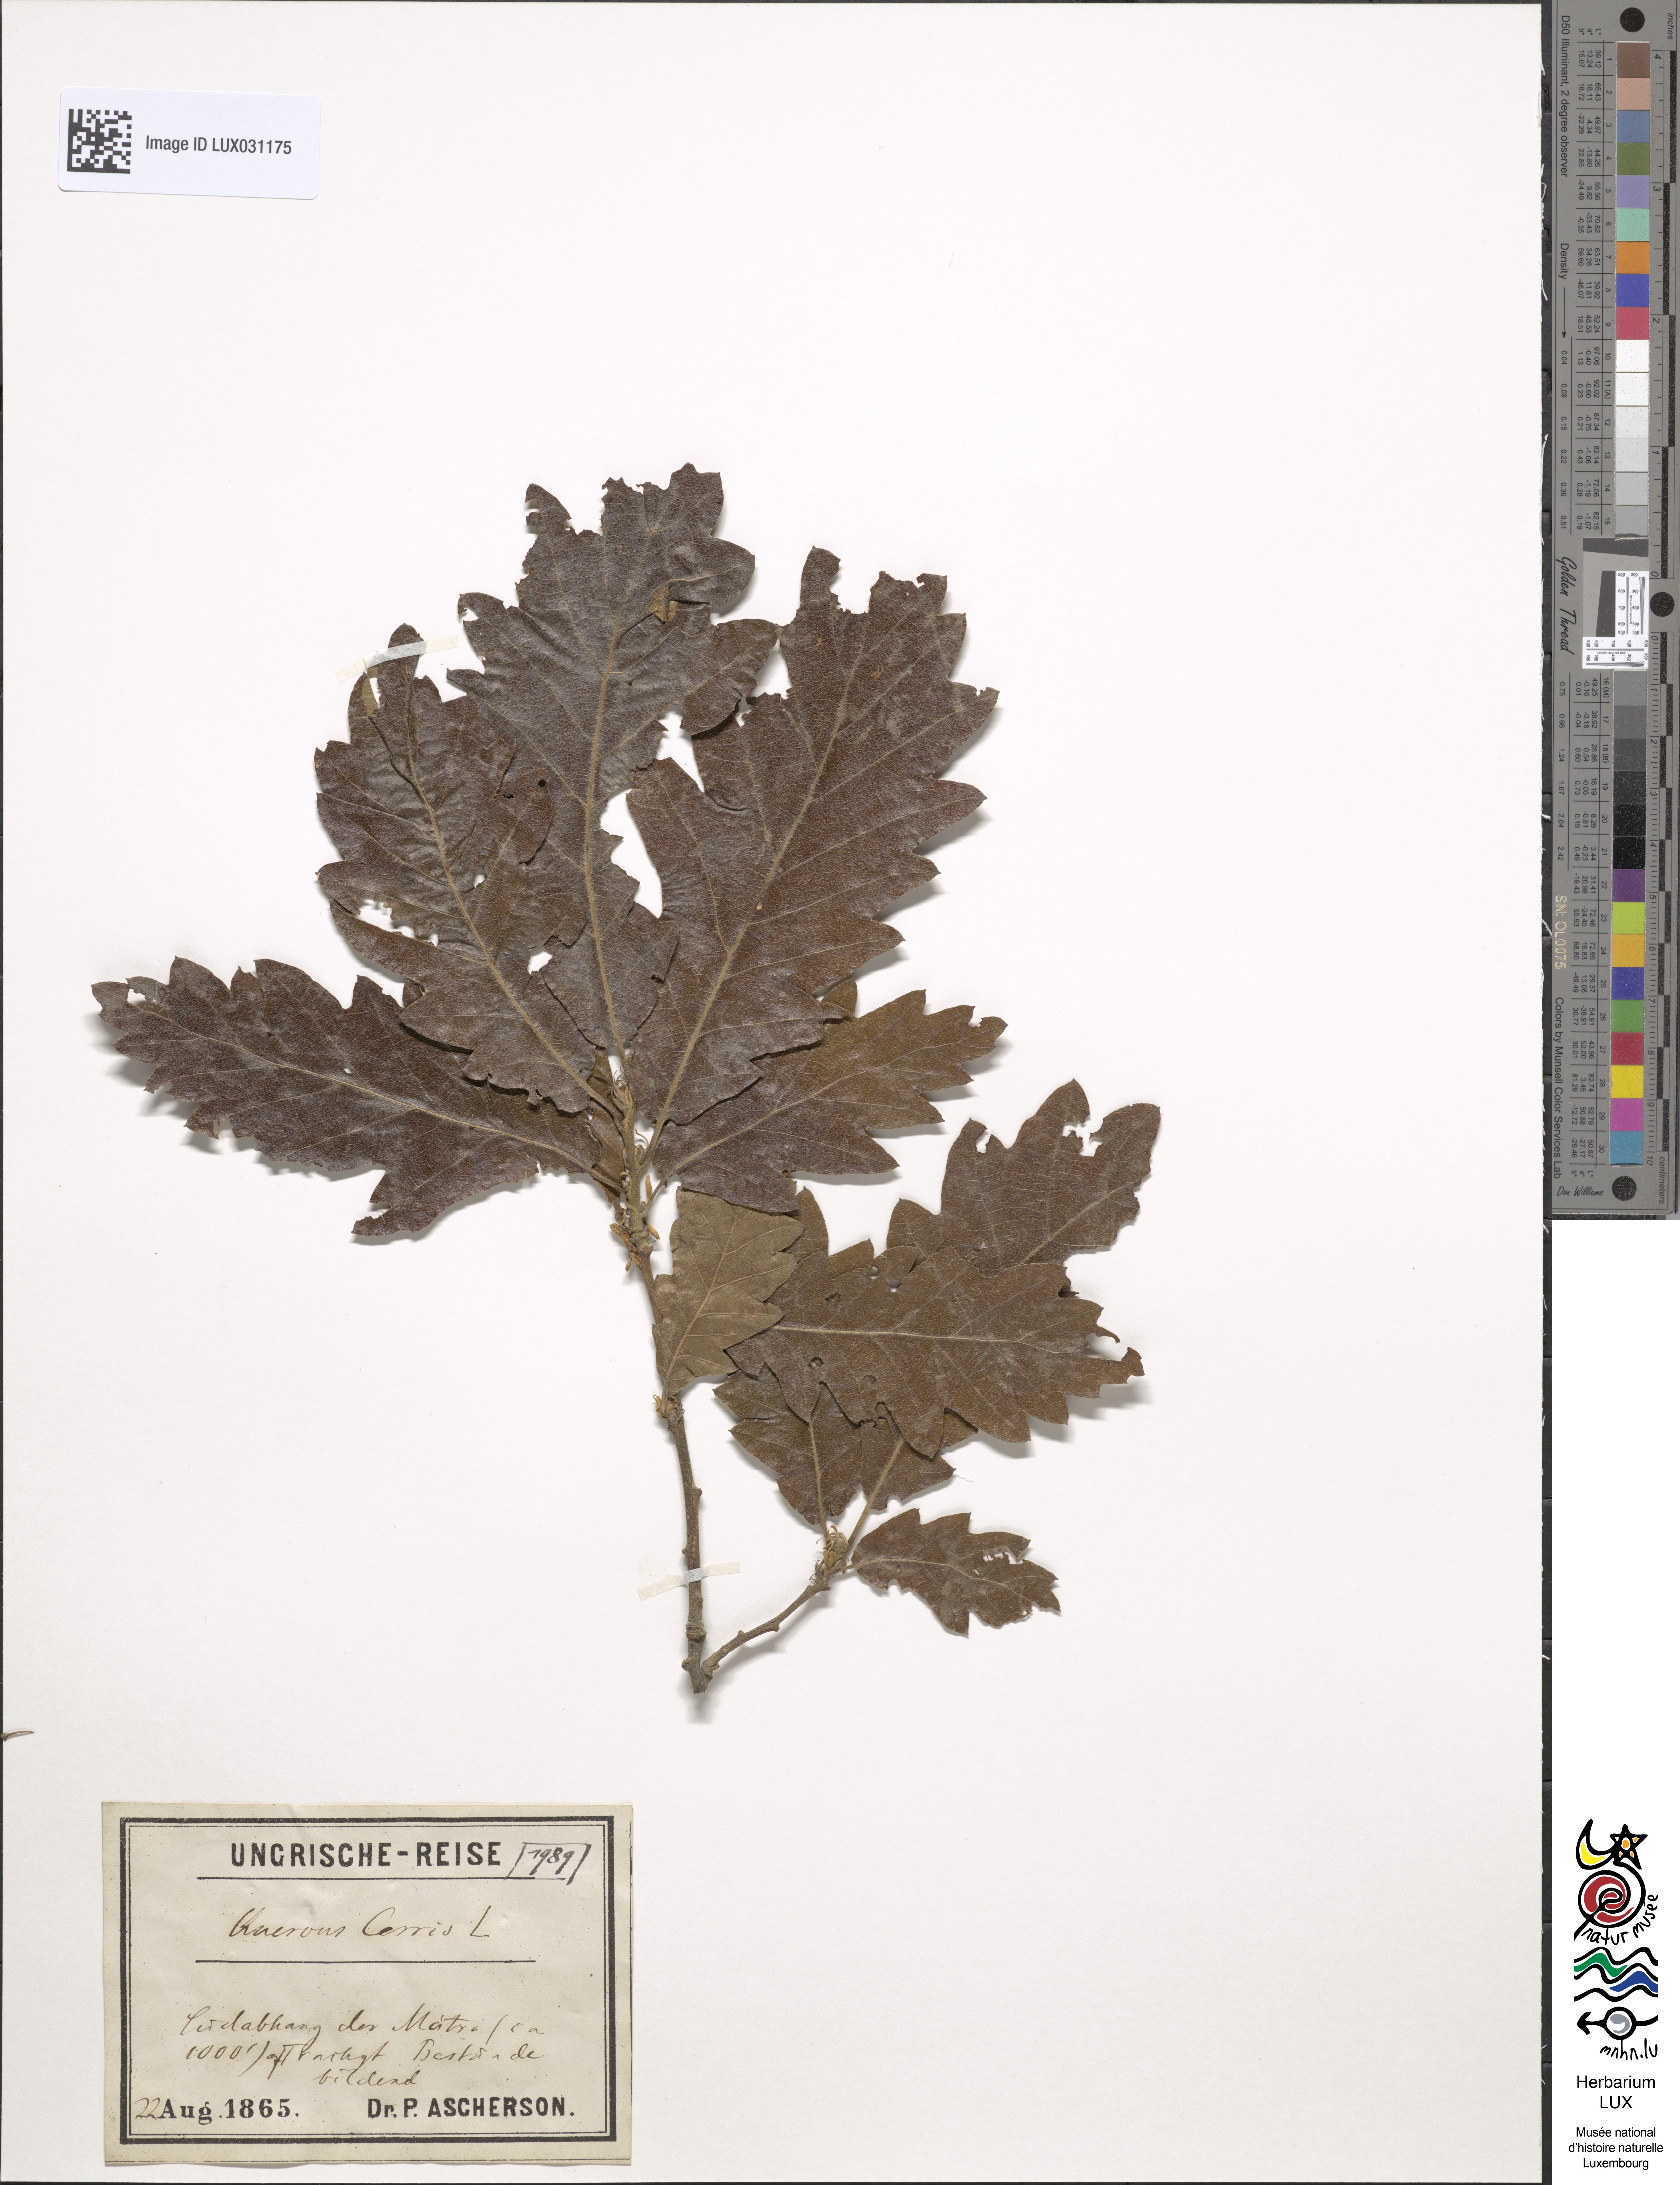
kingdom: Plantae
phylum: Tracheophyta
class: Magnoliopsida
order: Fagales
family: Fagaceae
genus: Quercus
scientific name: Quercus cerris
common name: Turkey oak
